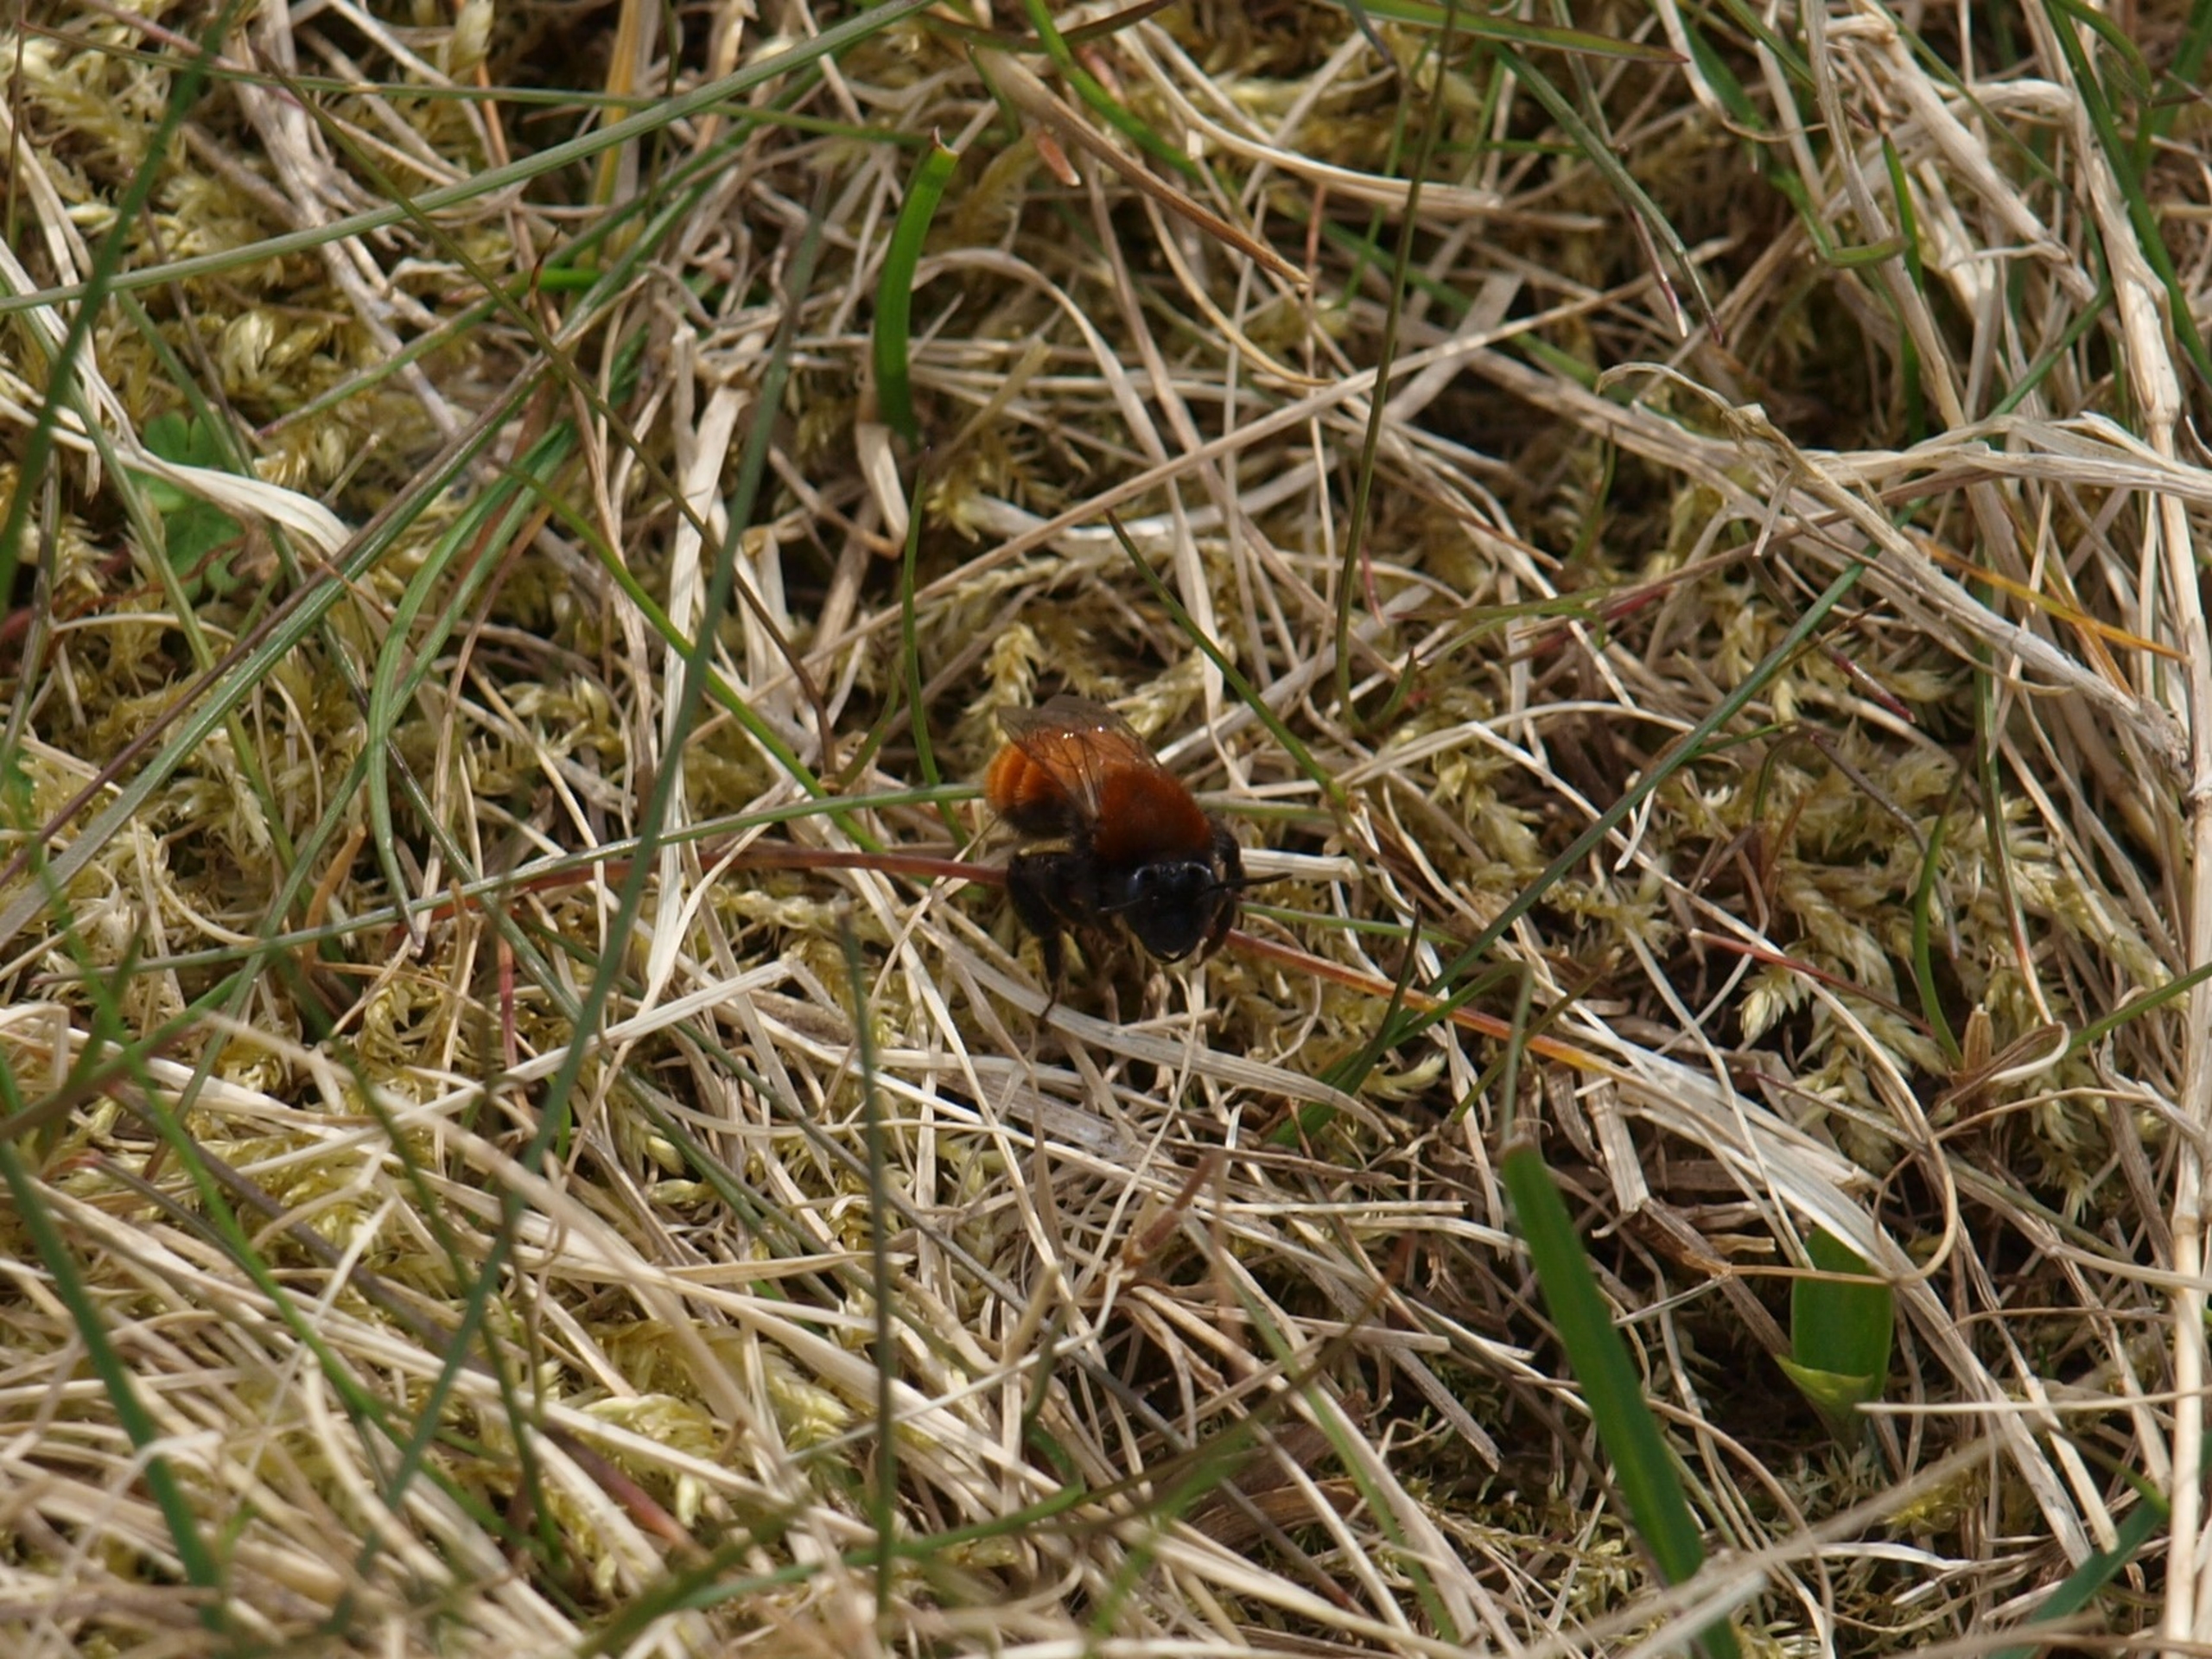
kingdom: Animalia
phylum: Arthropoda
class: Insecta
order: Hymenoptera
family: Andrenidae
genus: Andrena
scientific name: Andrena fulva
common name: Rødpelset jordbi
